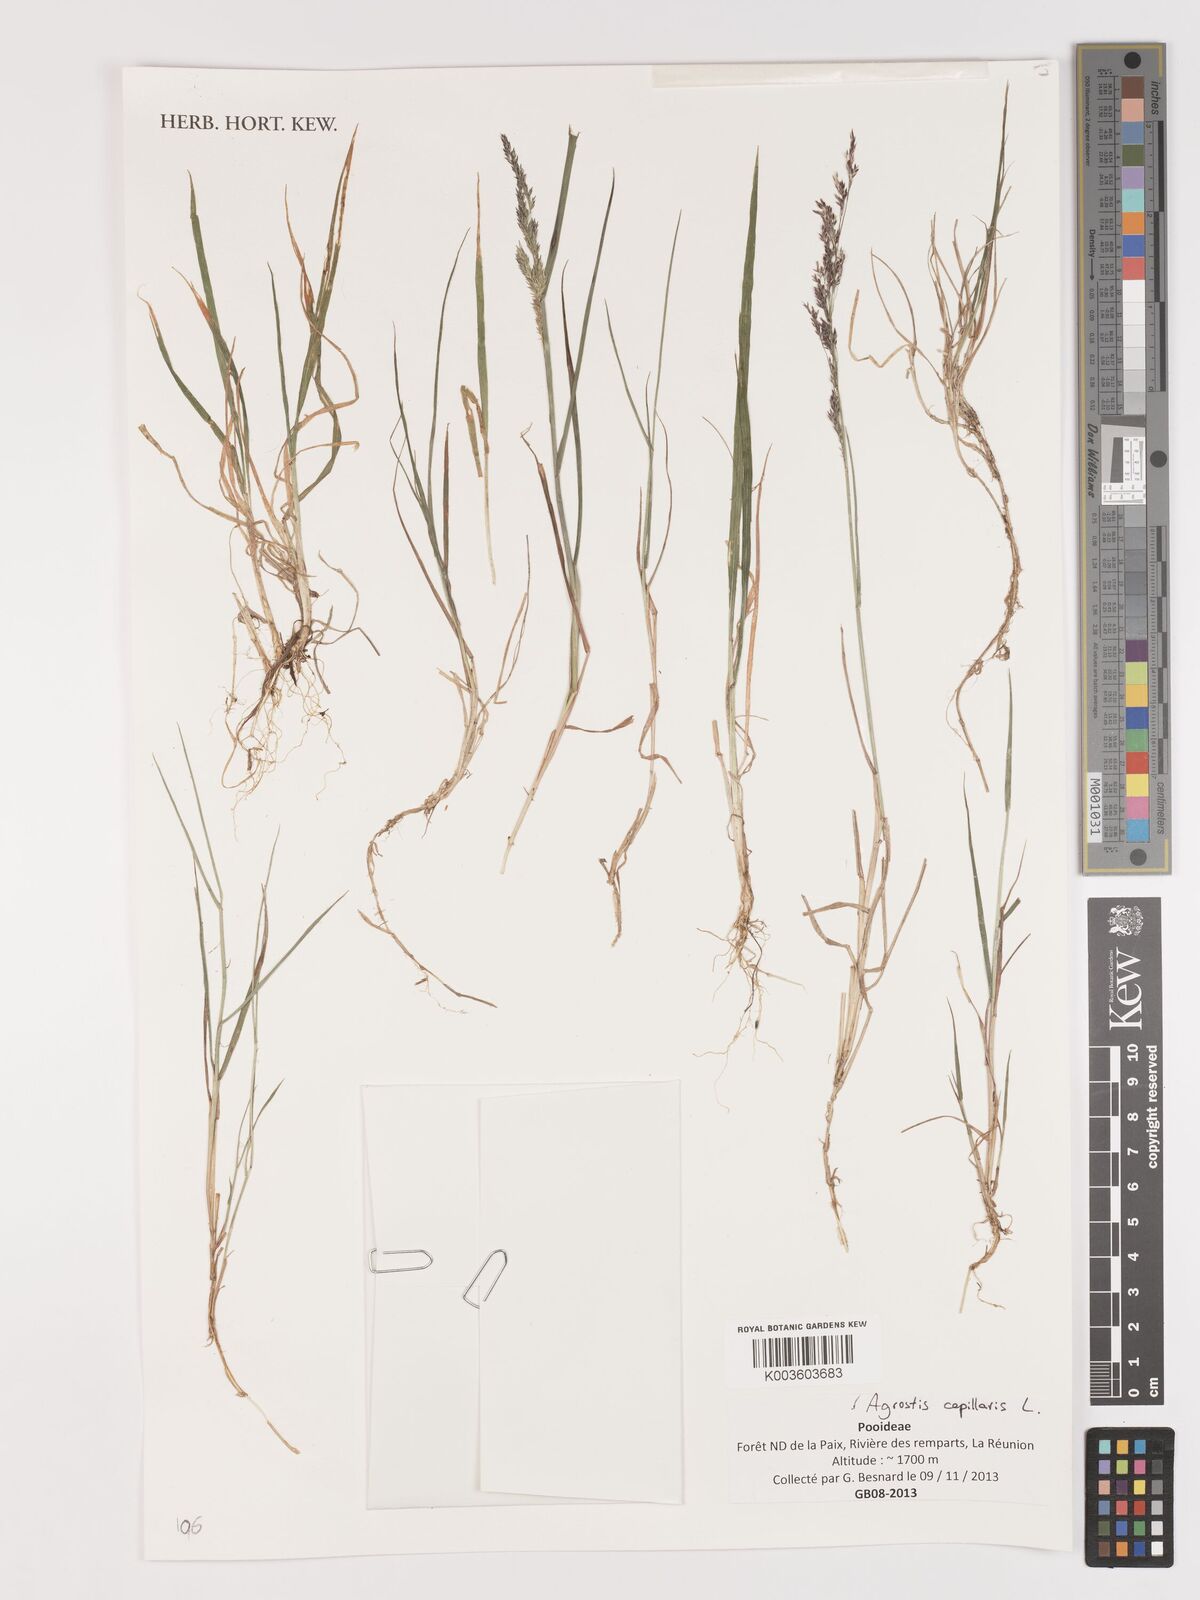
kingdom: Plantae
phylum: Tracheophyta
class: Liliopsida
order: Poales
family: Poaceae
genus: Agrostis
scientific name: Agrostis capillaris
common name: Colonial bentgrass
